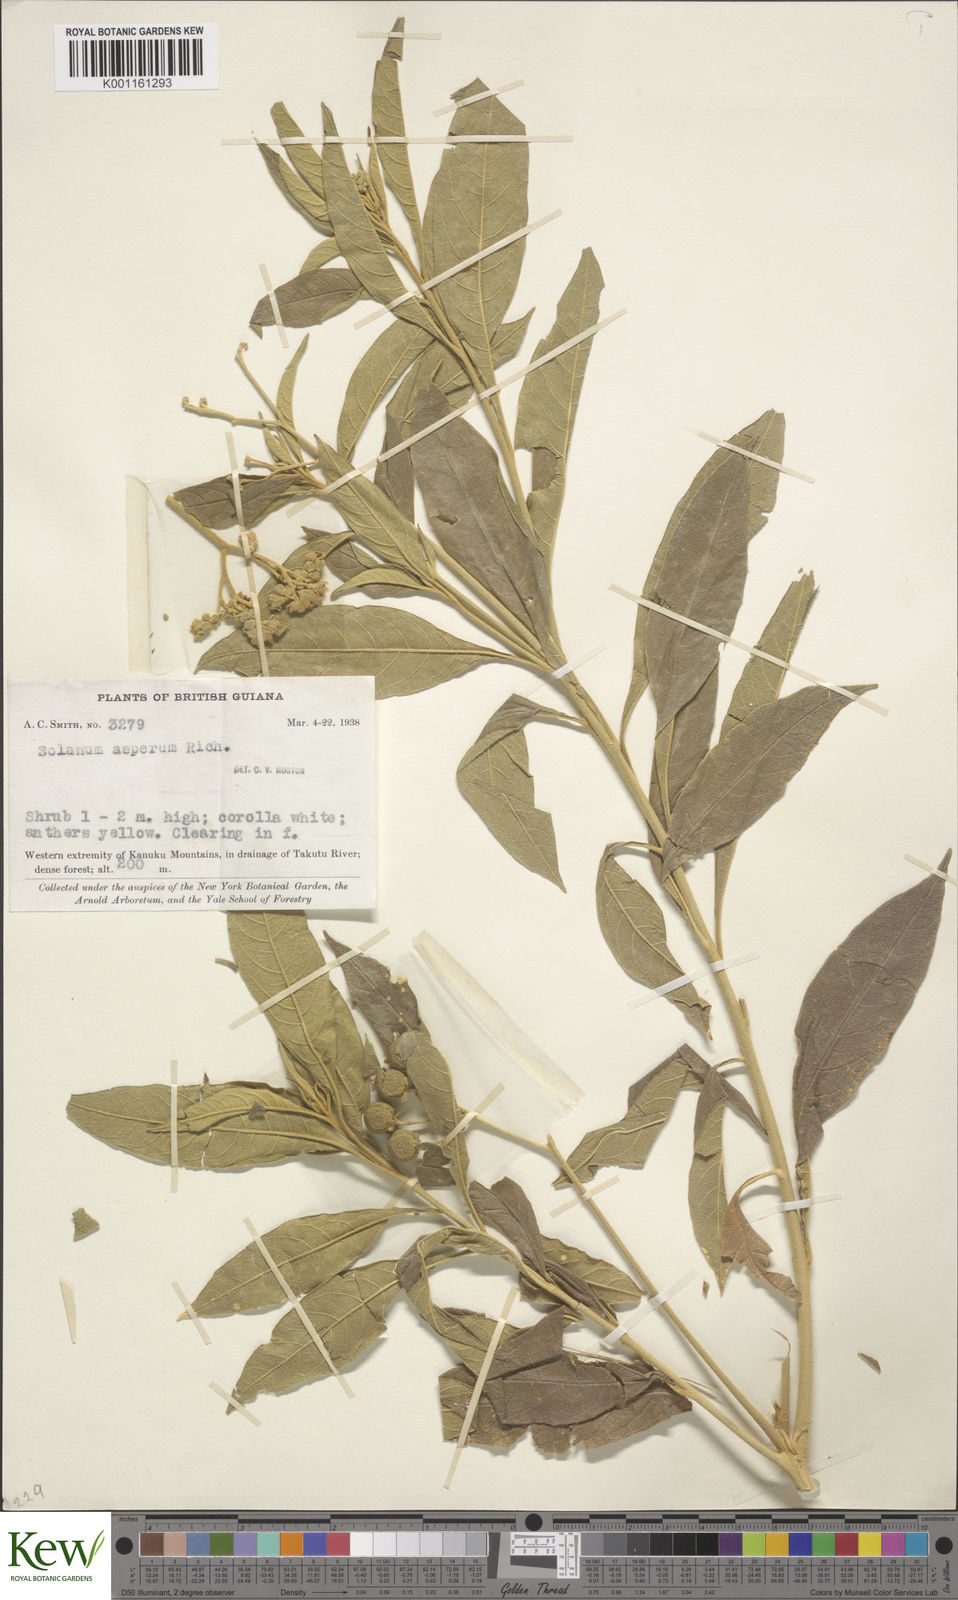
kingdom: Plantae
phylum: Tracheophyta
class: Magnoliopsida
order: Solanales
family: Solanaceae
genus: Solanum
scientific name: Solanum asperum
